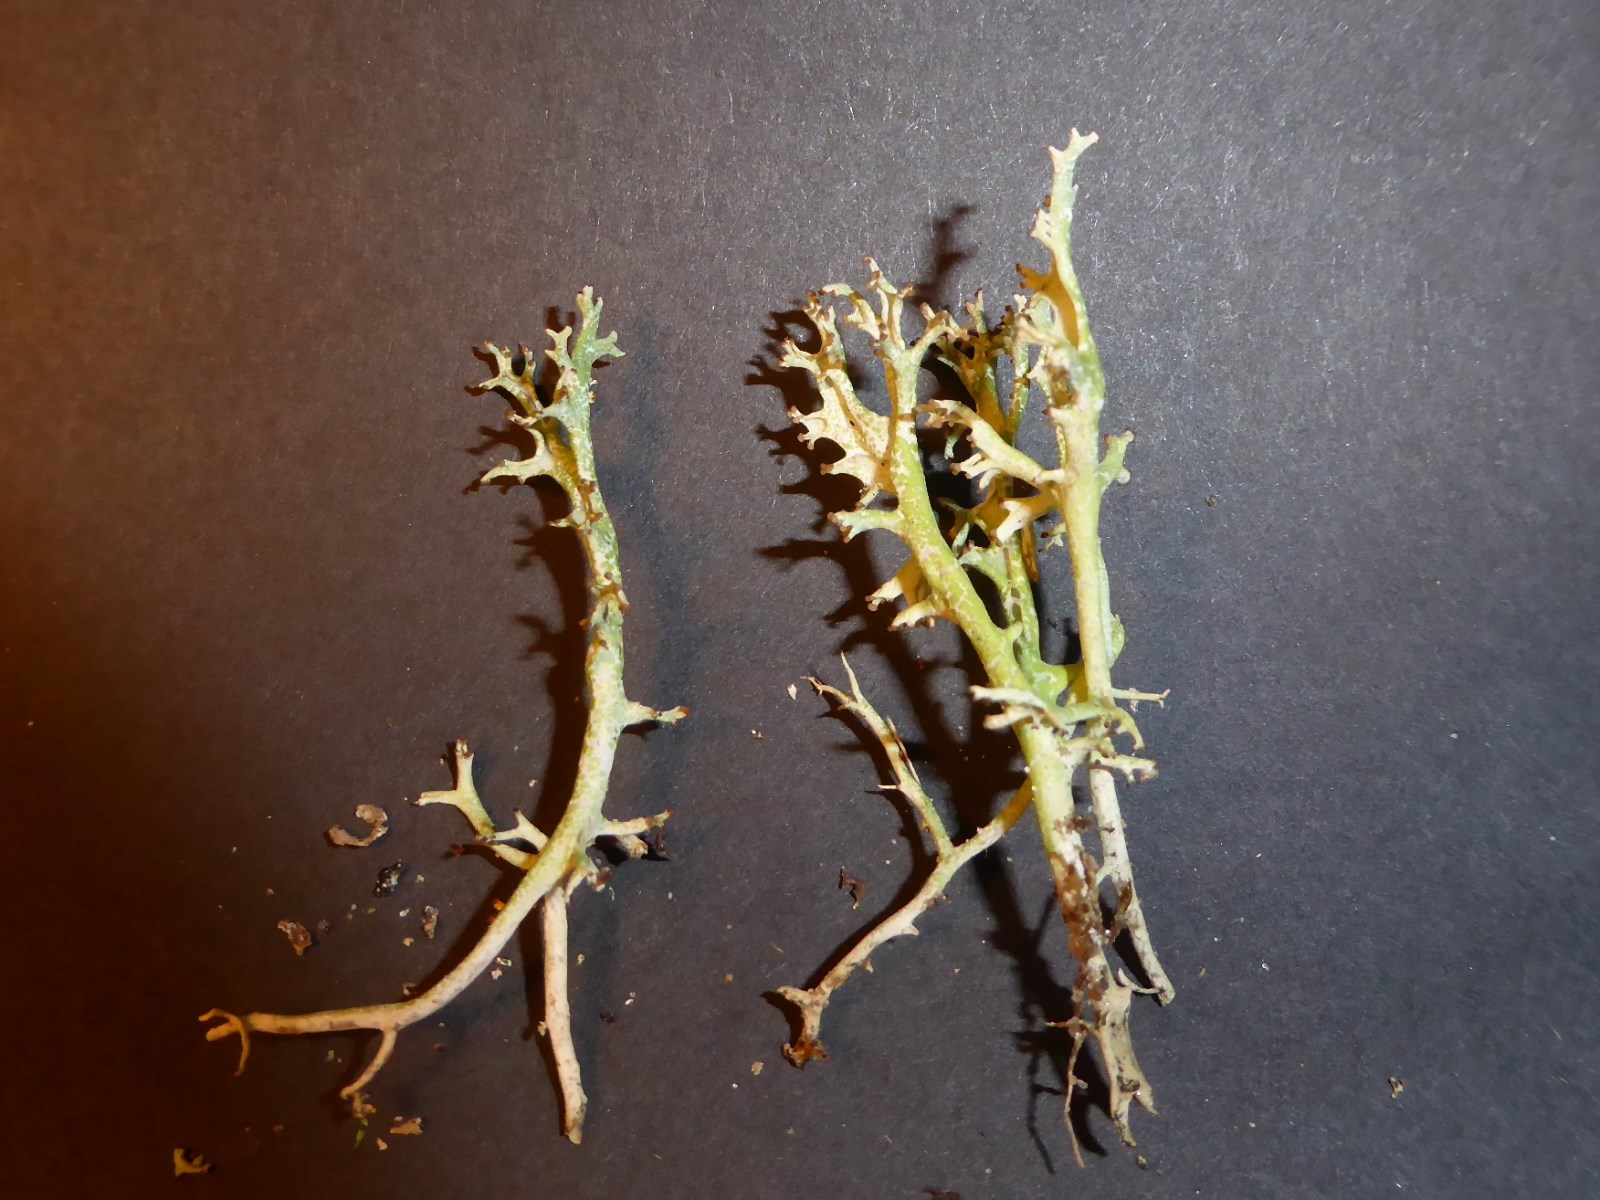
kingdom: Fungi
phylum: Ascomycota
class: Lecanoromycetes
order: Lecanorales
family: Cladoniaceae
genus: Cladonia
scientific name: Cladonia crispata
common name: takket bægerlav
